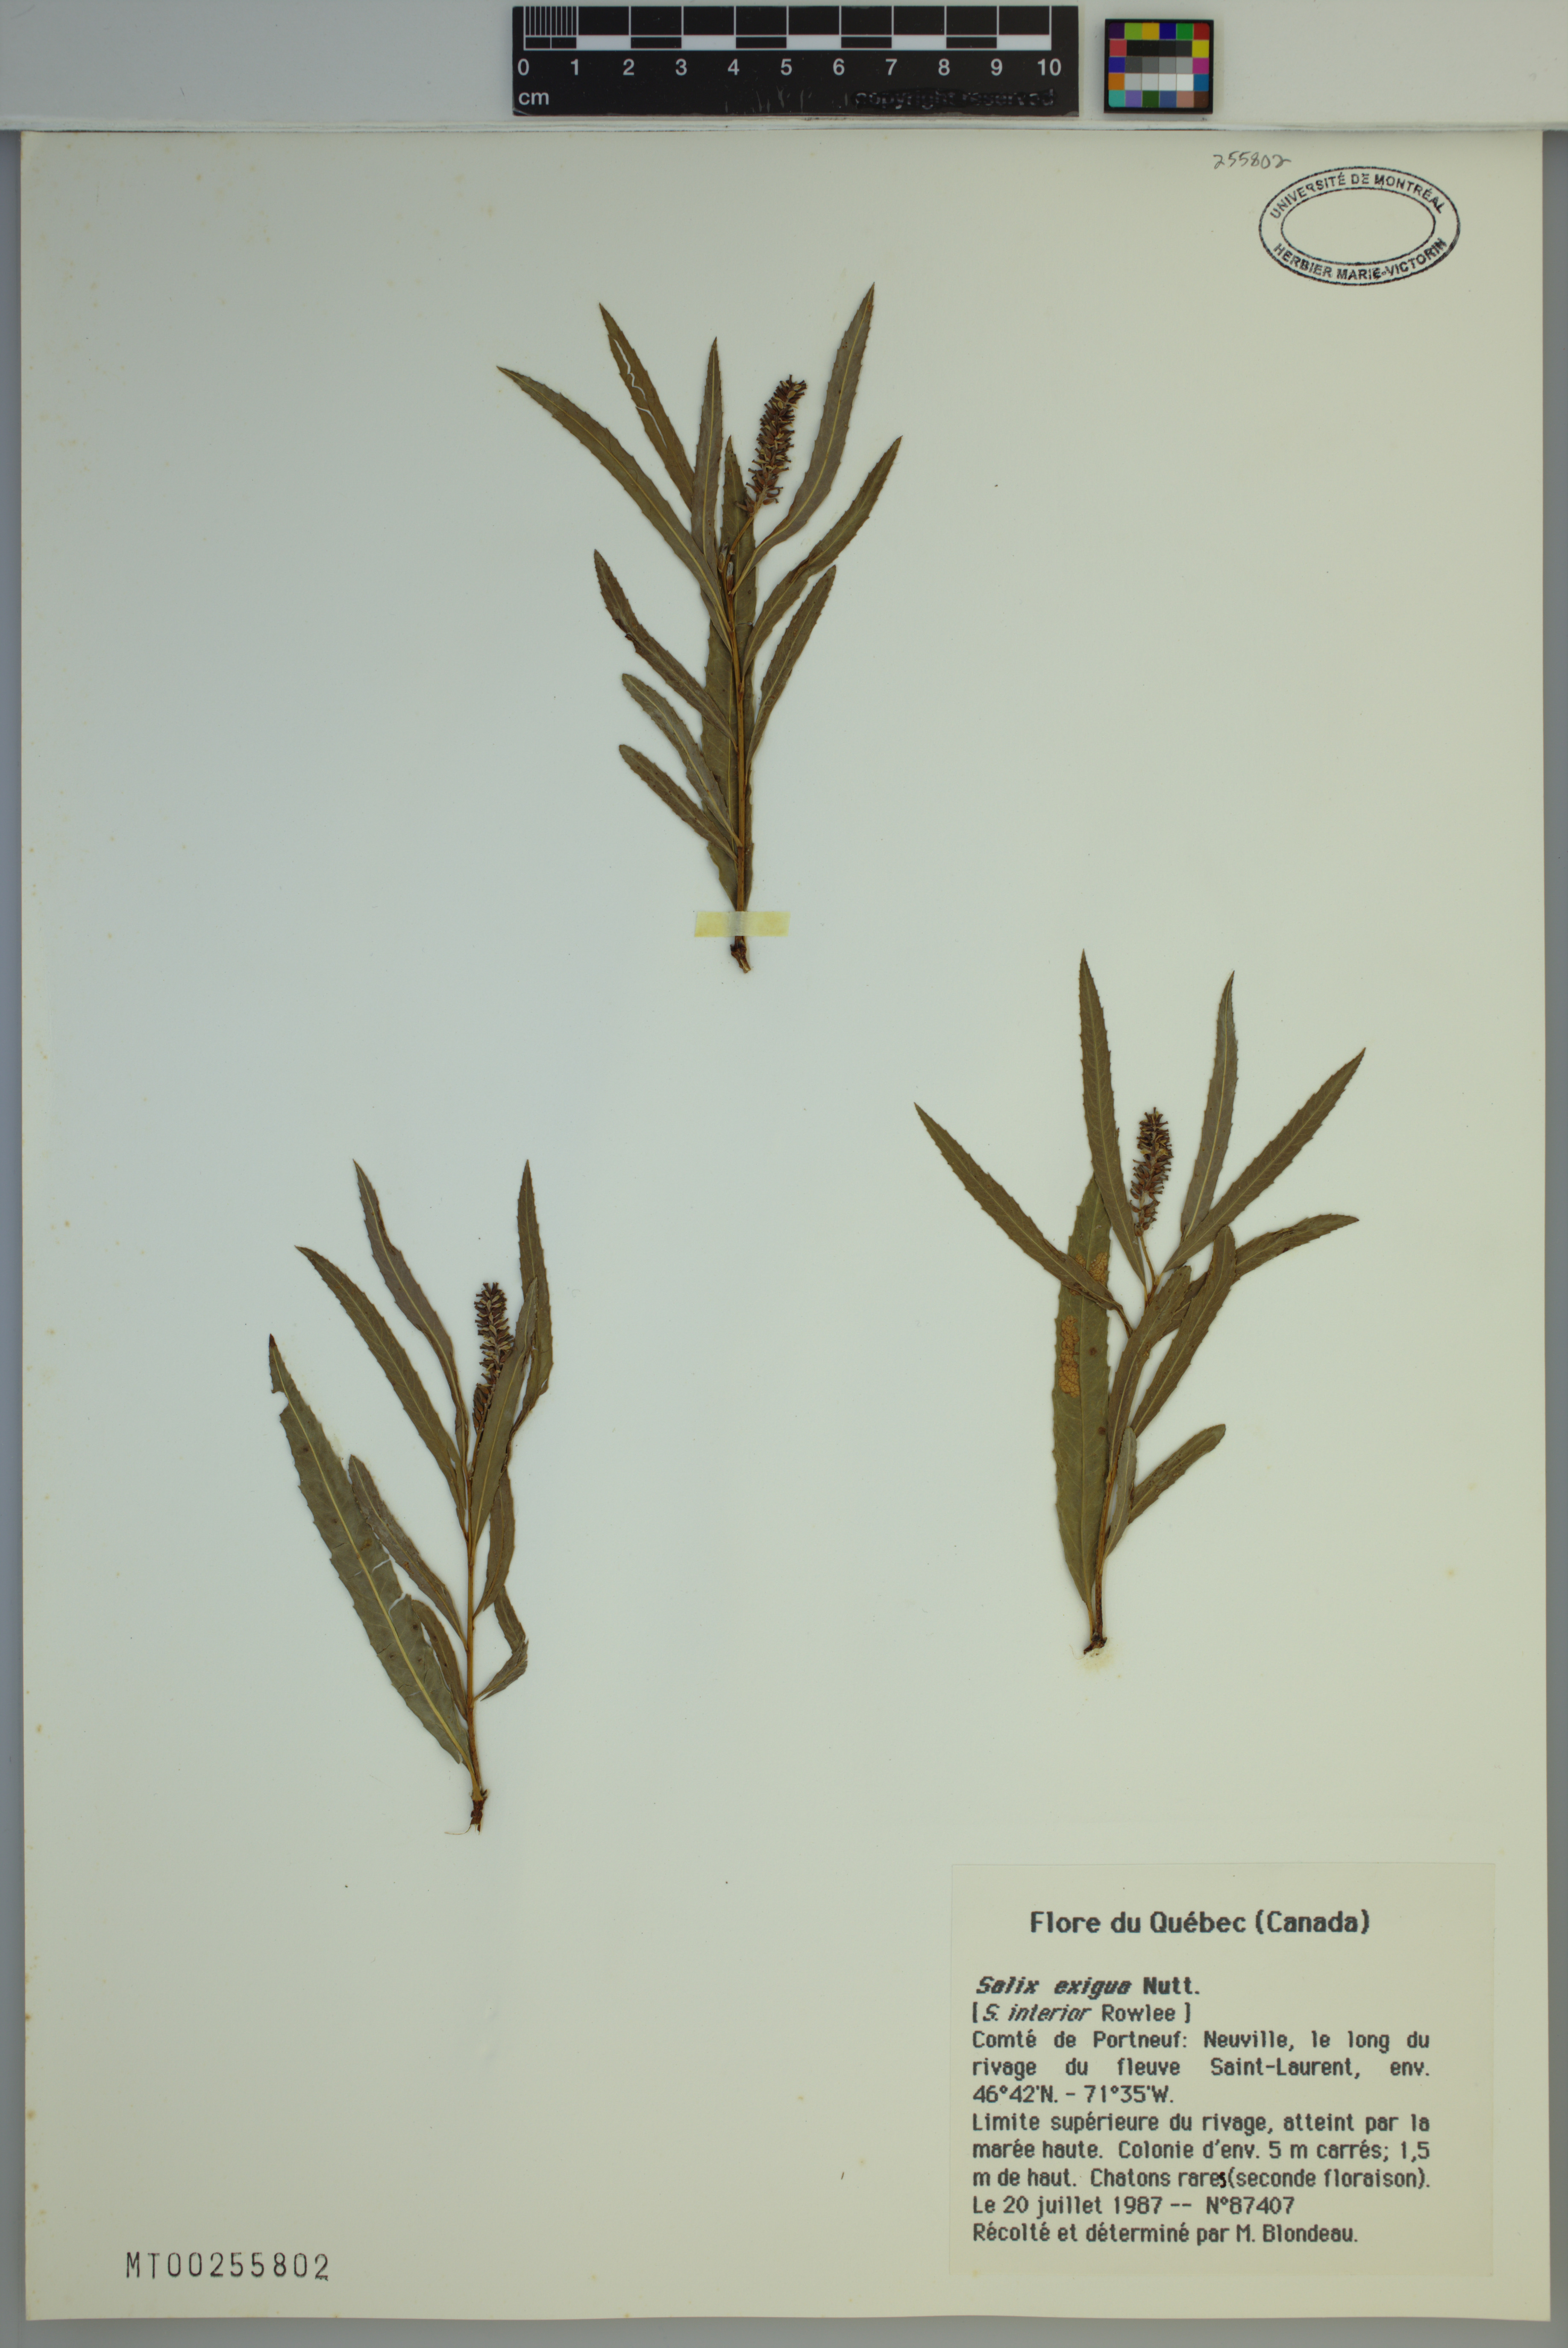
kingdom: Plantae
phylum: Tracheophyta
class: Magnoliopsida
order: Malpighiales
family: Salicaceae
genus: Salix
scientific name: Salix exigua
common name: Coyote willow
